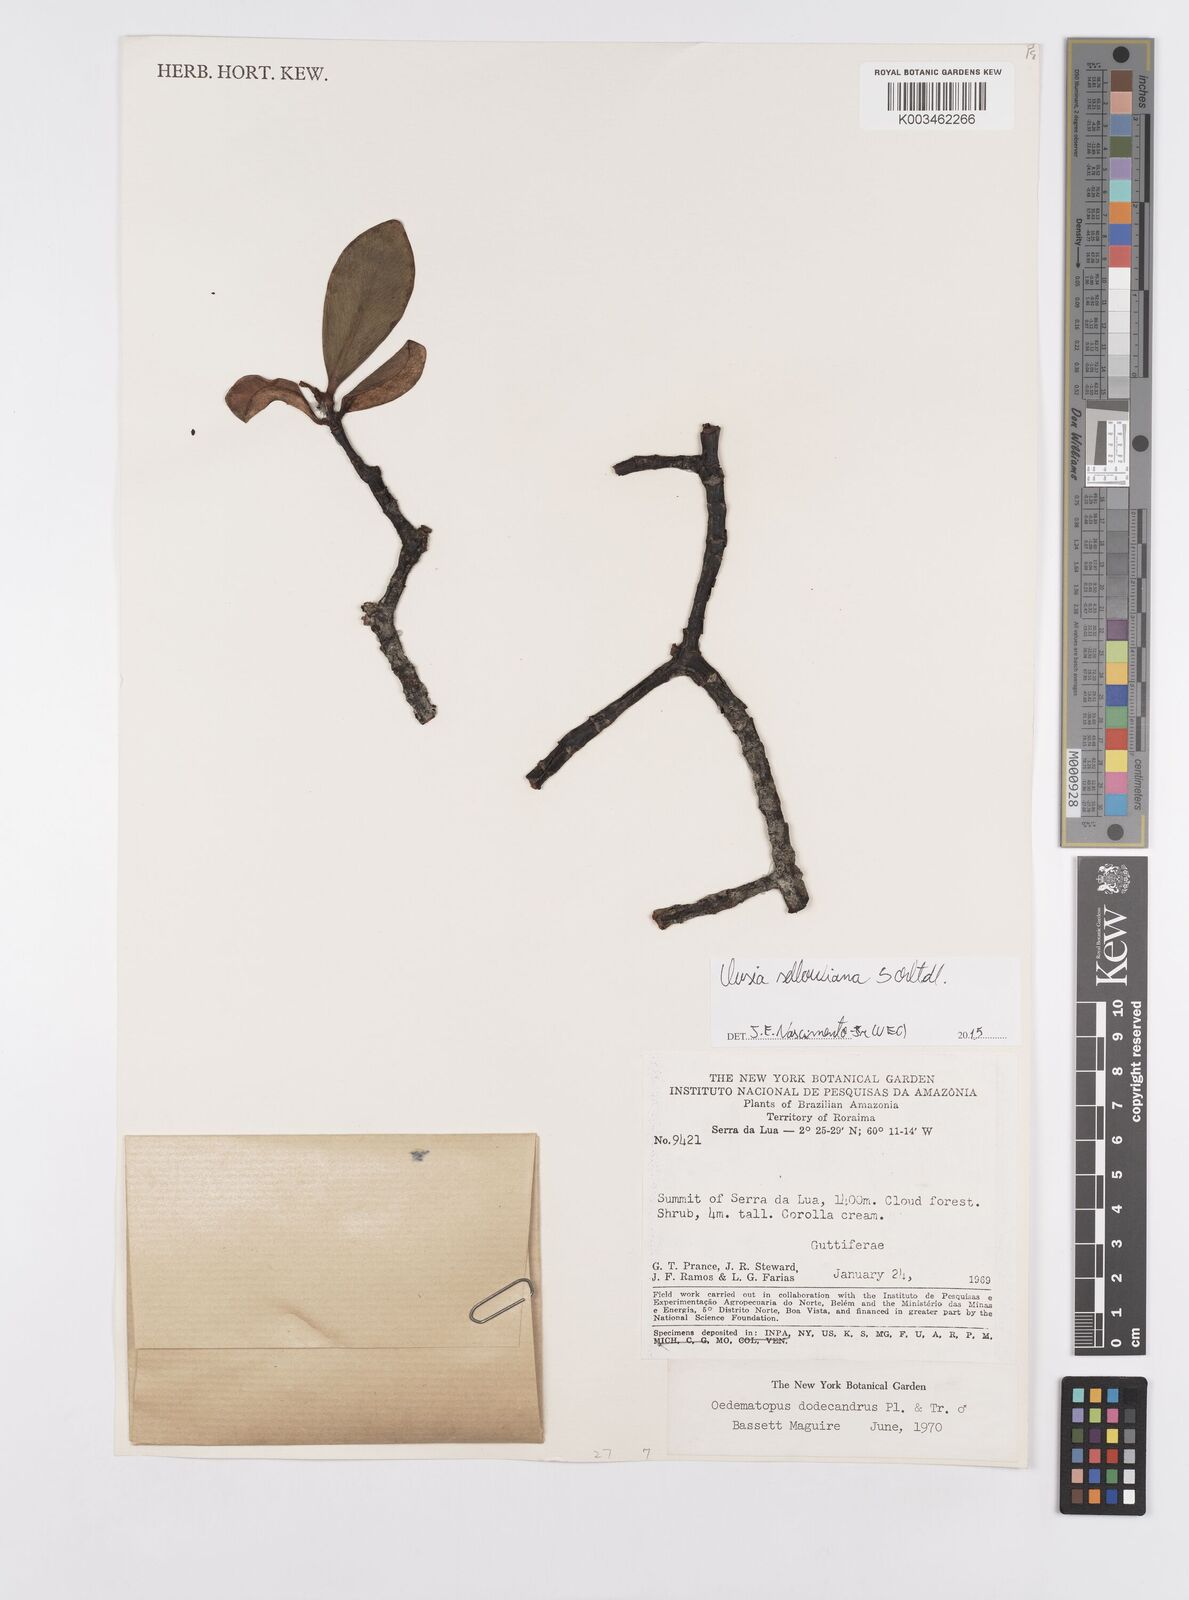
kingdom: Plantae
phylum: Tracheophyta
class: Magnoliopsida
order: Malpighiales
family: Clusiaceae
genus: Clusia
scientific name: Clusia sellowiana
